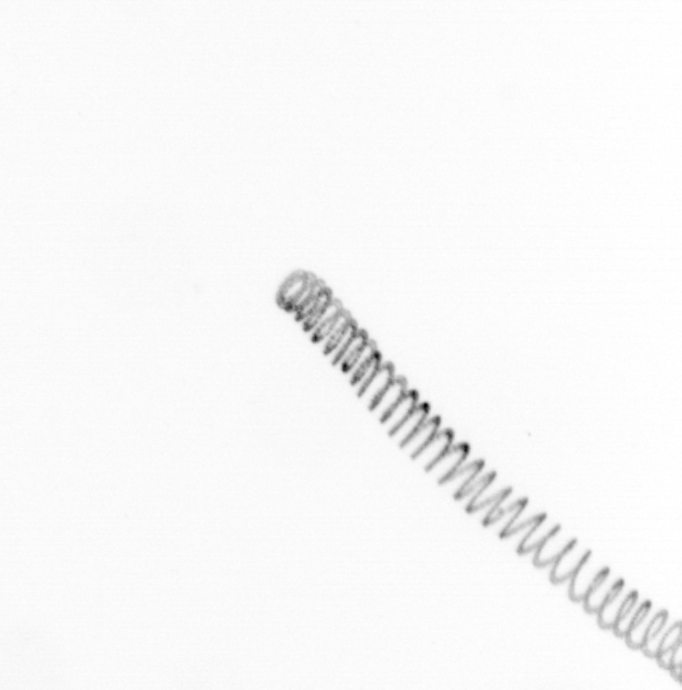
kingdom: Chromista
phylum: Ochrophyta
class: Bacillariophyceae
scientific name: Bacillariophyceae
